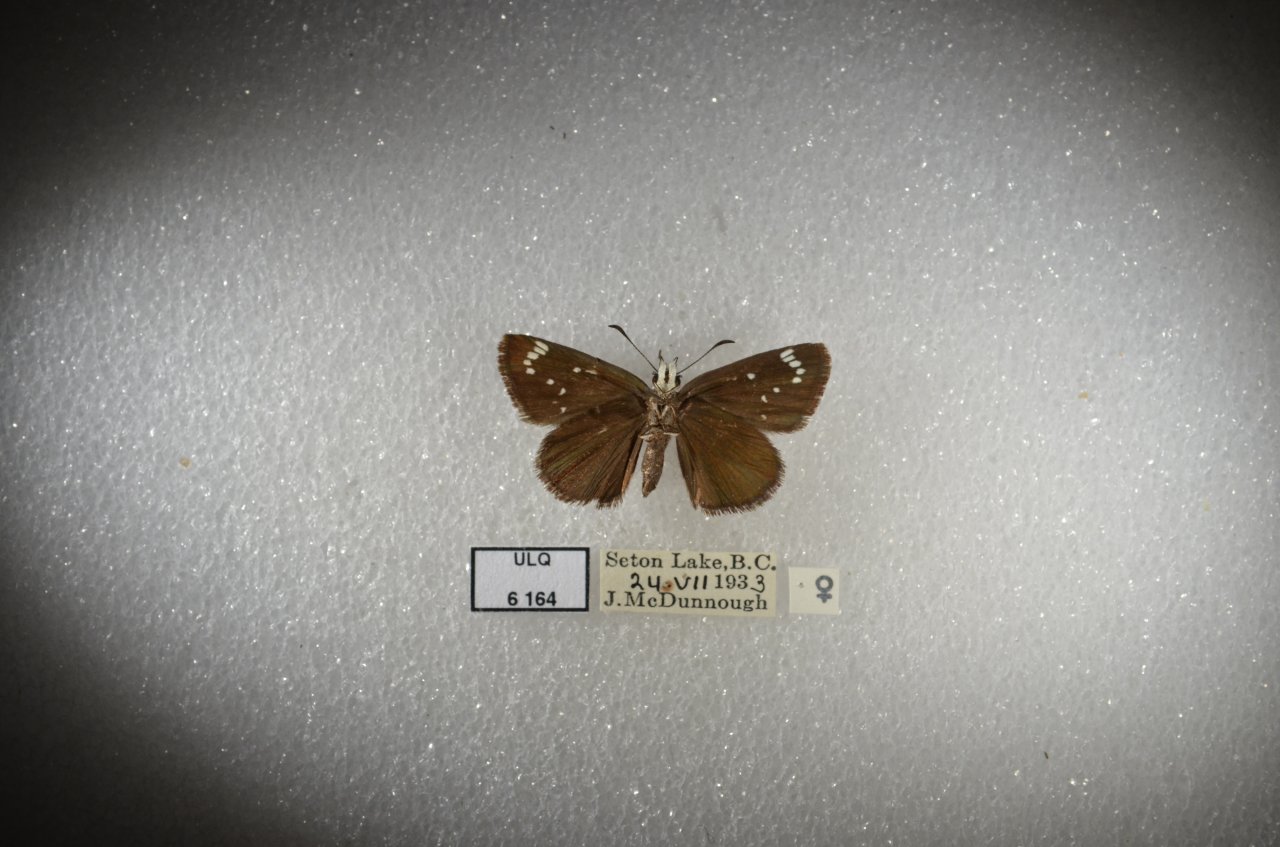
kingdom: Animalia
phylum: Arthropoda
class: Insecta
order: Lepidoptera
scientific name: Lepidoptera
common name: Butterflies
